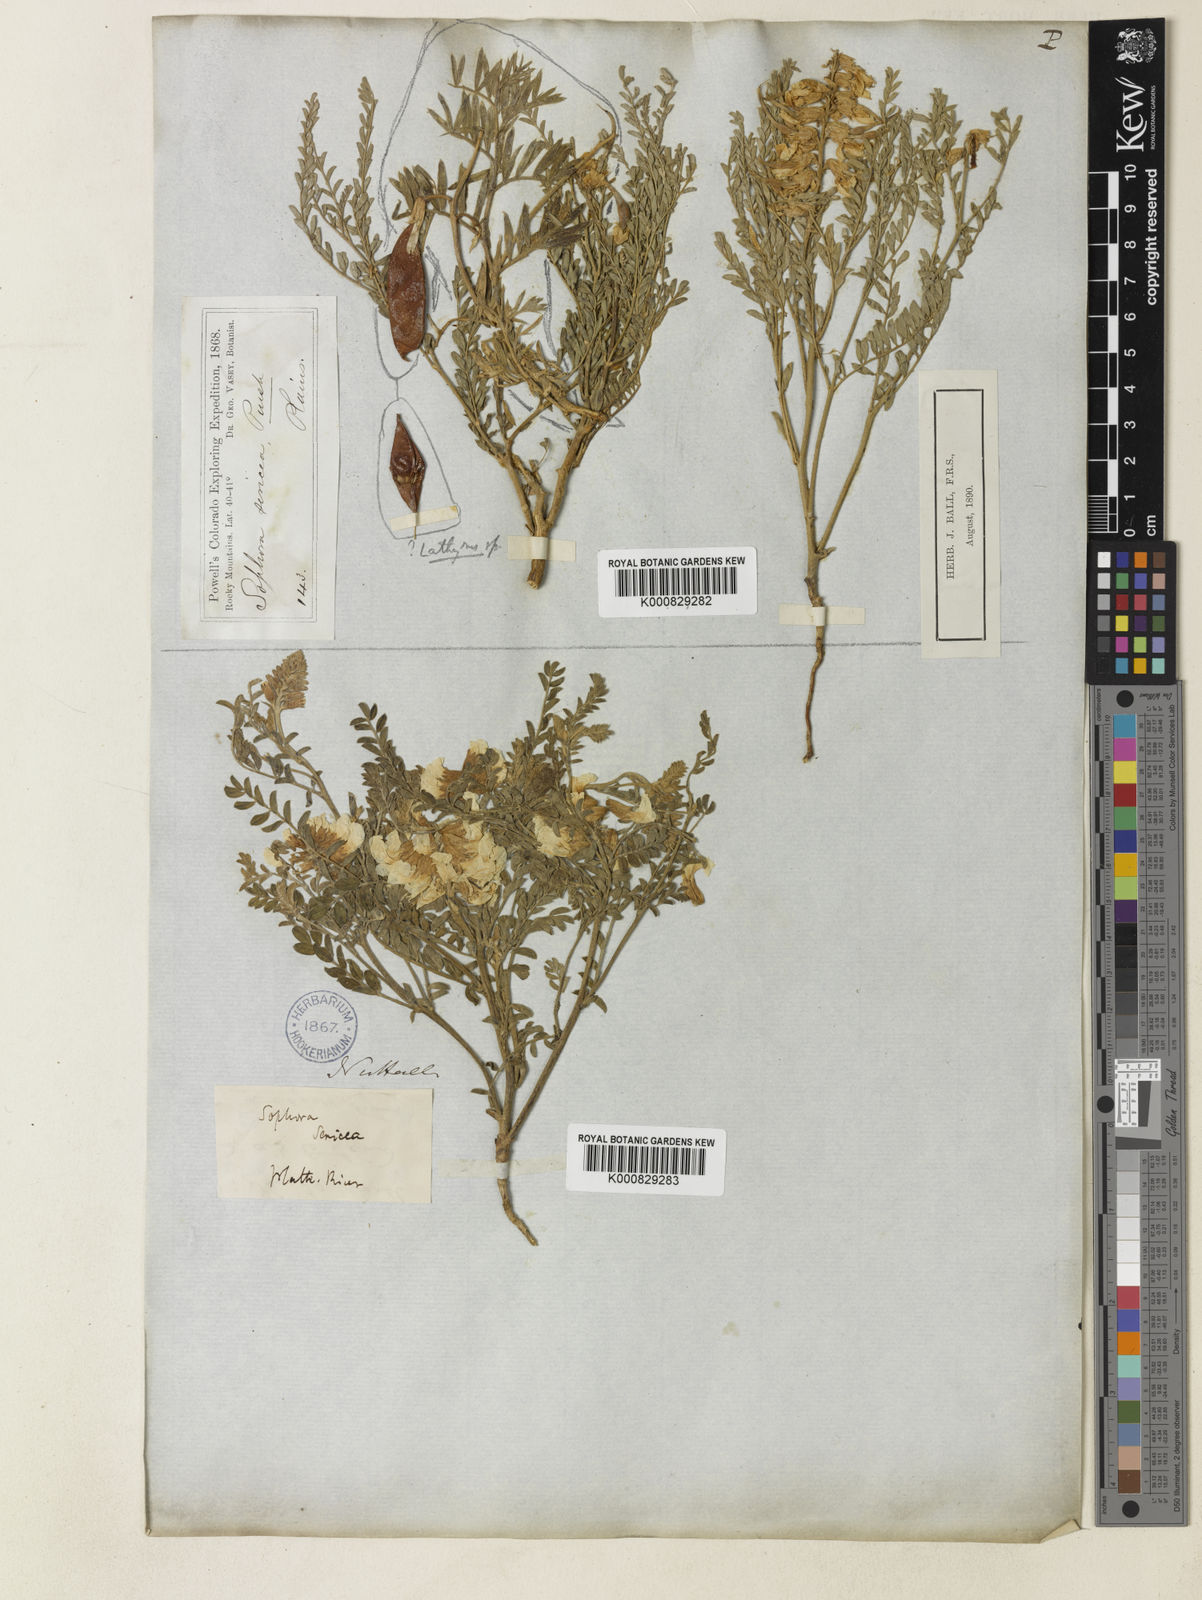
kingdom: Plantae
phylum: Tracheophyta
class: Magnoliopsida
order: Fabales
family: Fabaceae
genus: Sophora
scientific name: Sophora nuttalliana
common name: Silky sophora
